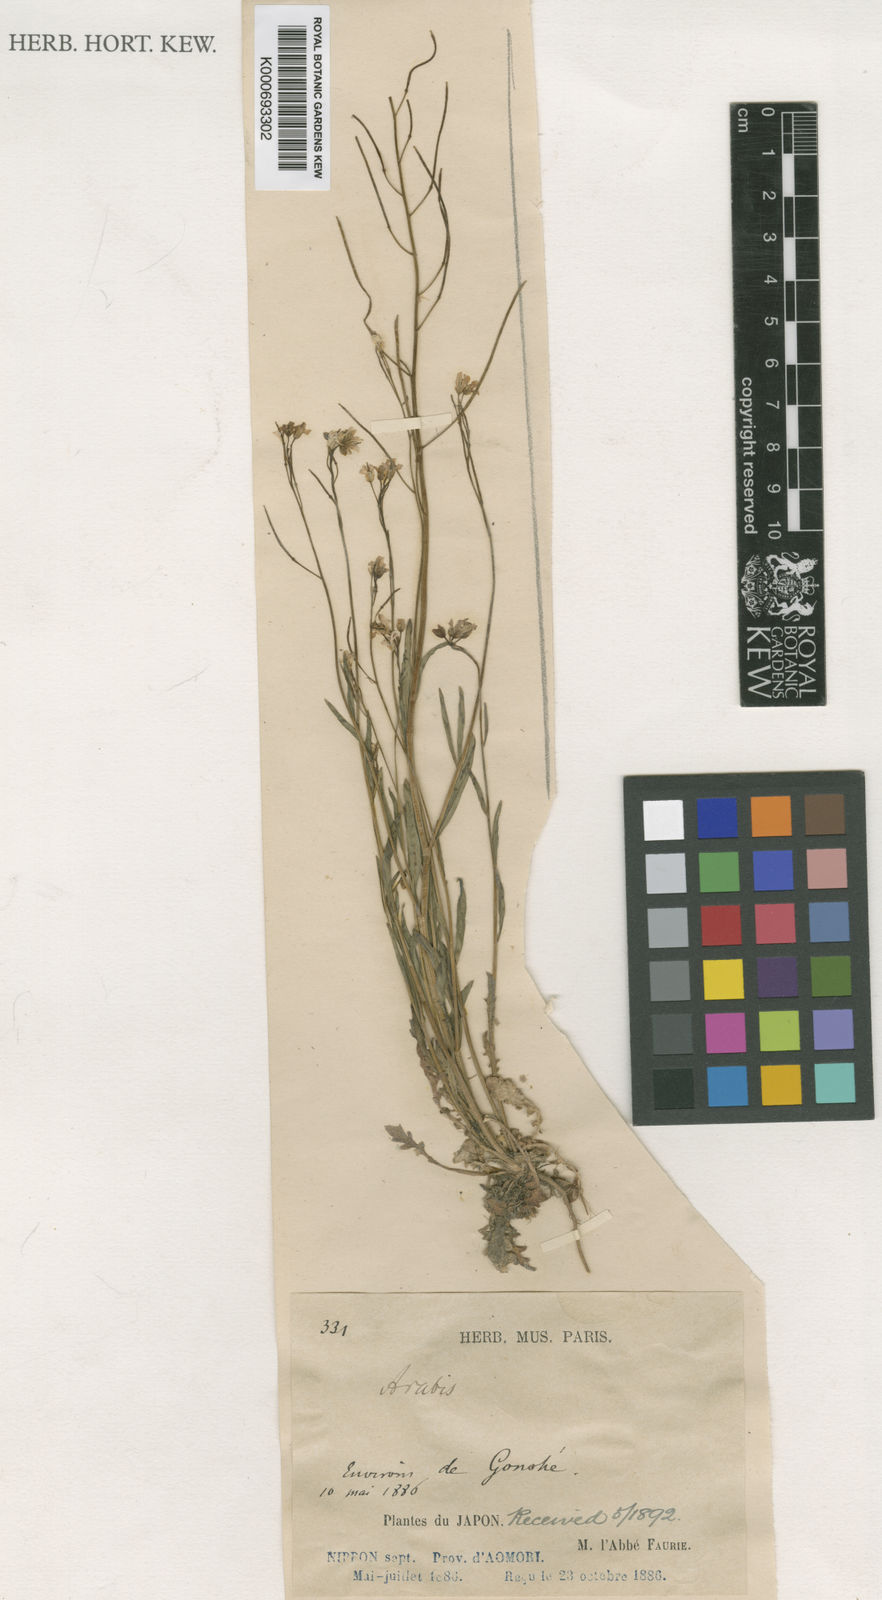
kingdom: Plantae
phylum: Tracheophyta
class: Magnoliopsida
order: Brassicales
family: Brassicaceae
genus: Arabis
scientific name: Arabis serrata
